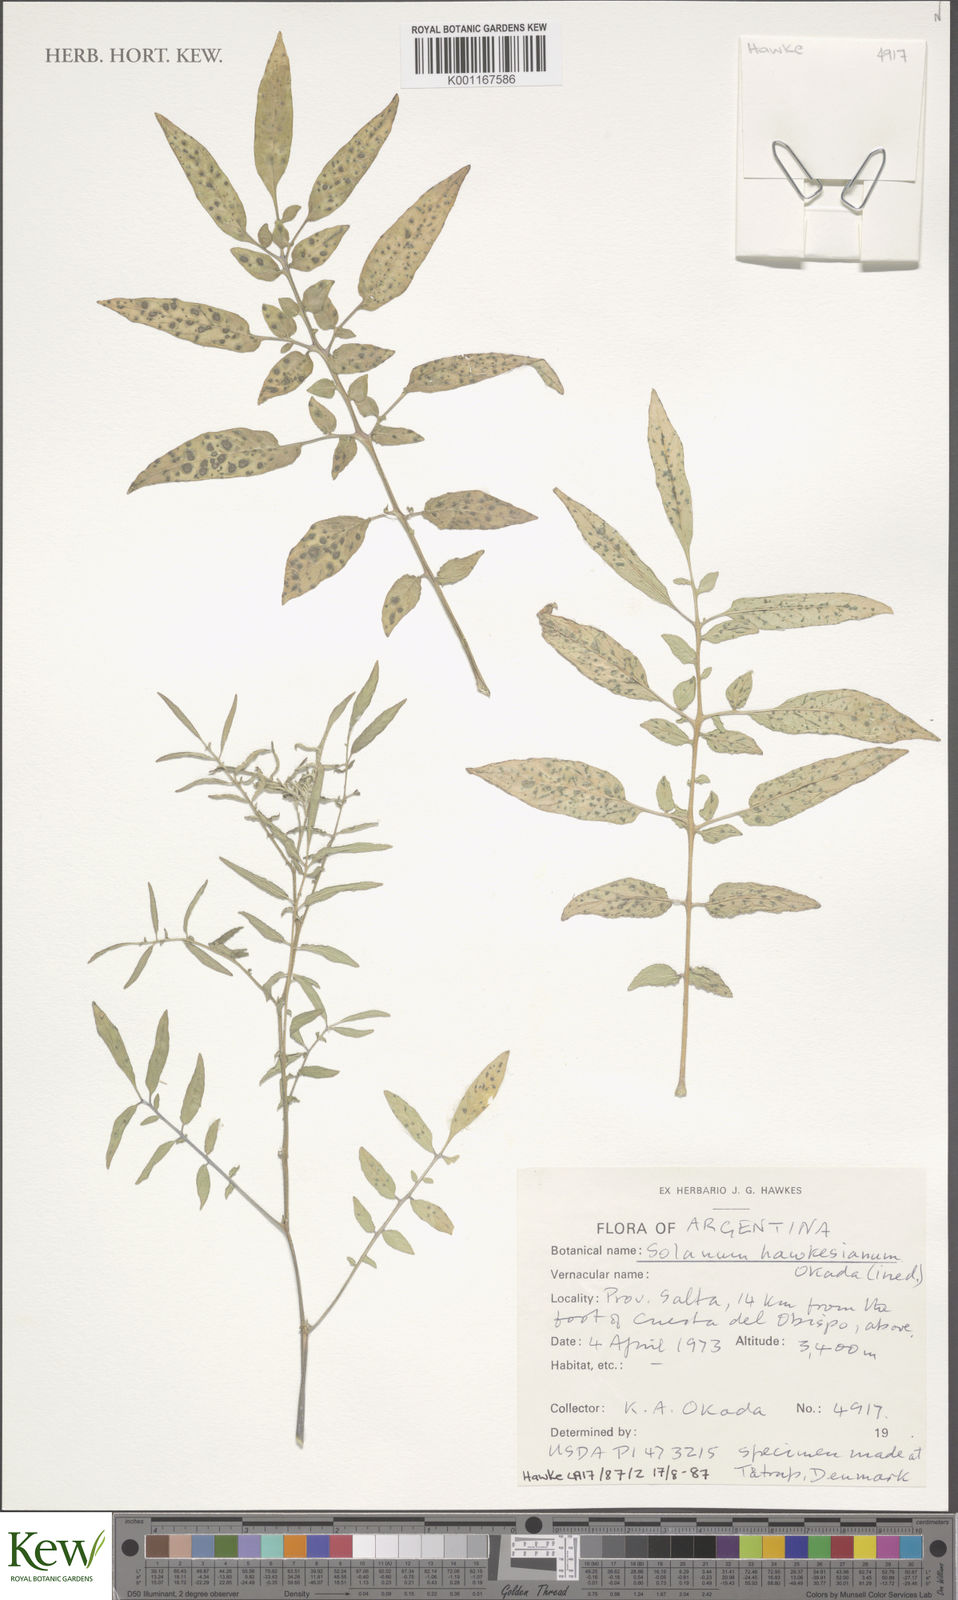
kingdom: Plantae
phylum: Tracheophyta
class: Magnoliopsida
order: Solanales
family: Solanaceae
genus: Solanum
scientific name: Solanum heleonastes
